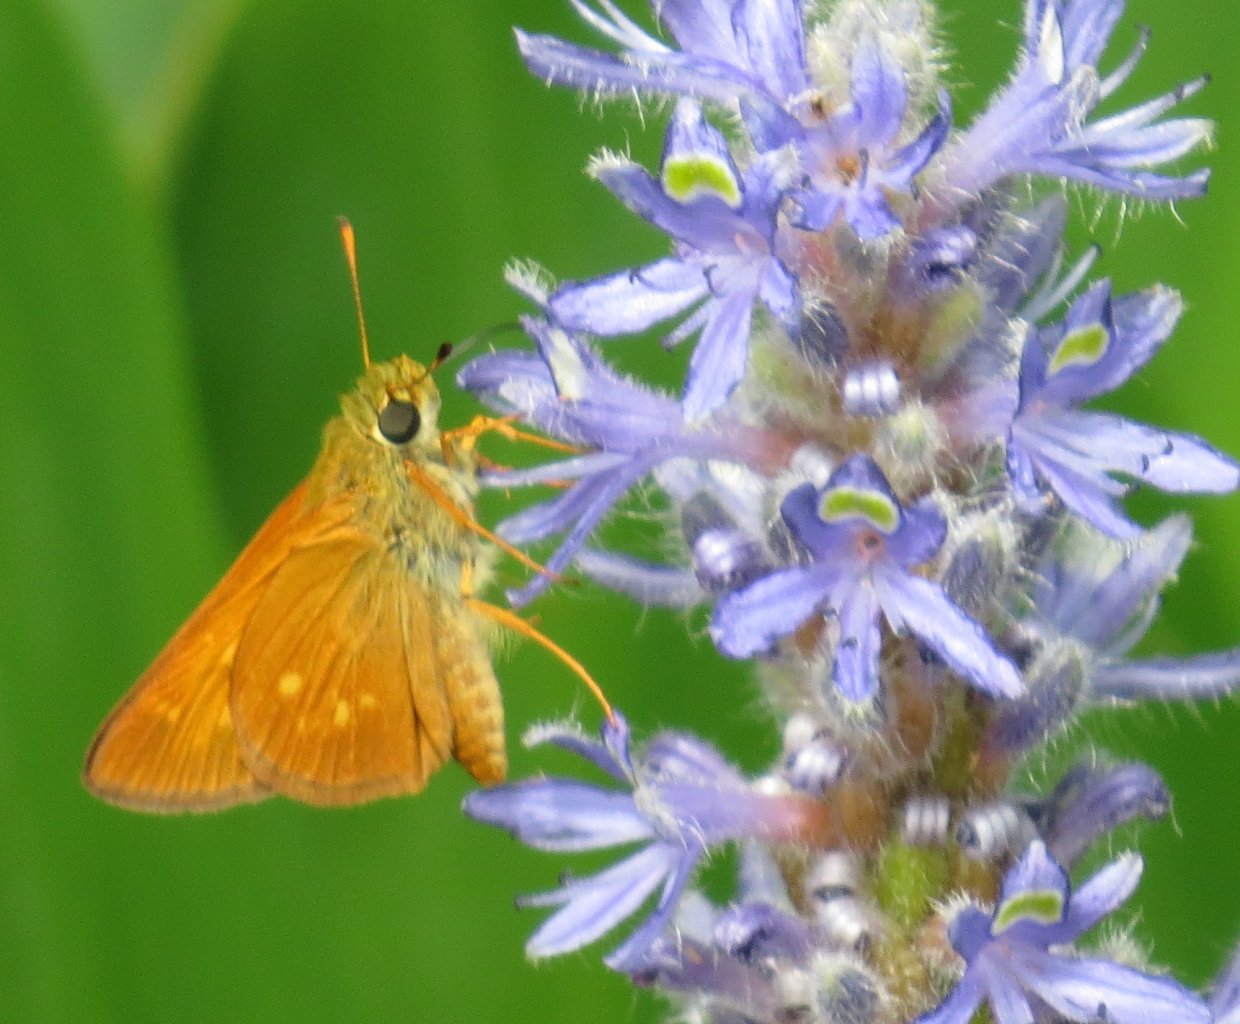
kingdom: Animalia
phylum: Arthropoda
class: Insecta
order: Lepidoptera
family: Hesperiidae
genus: Poanes
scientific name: Poanes yehl
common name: Yehl Skipper
